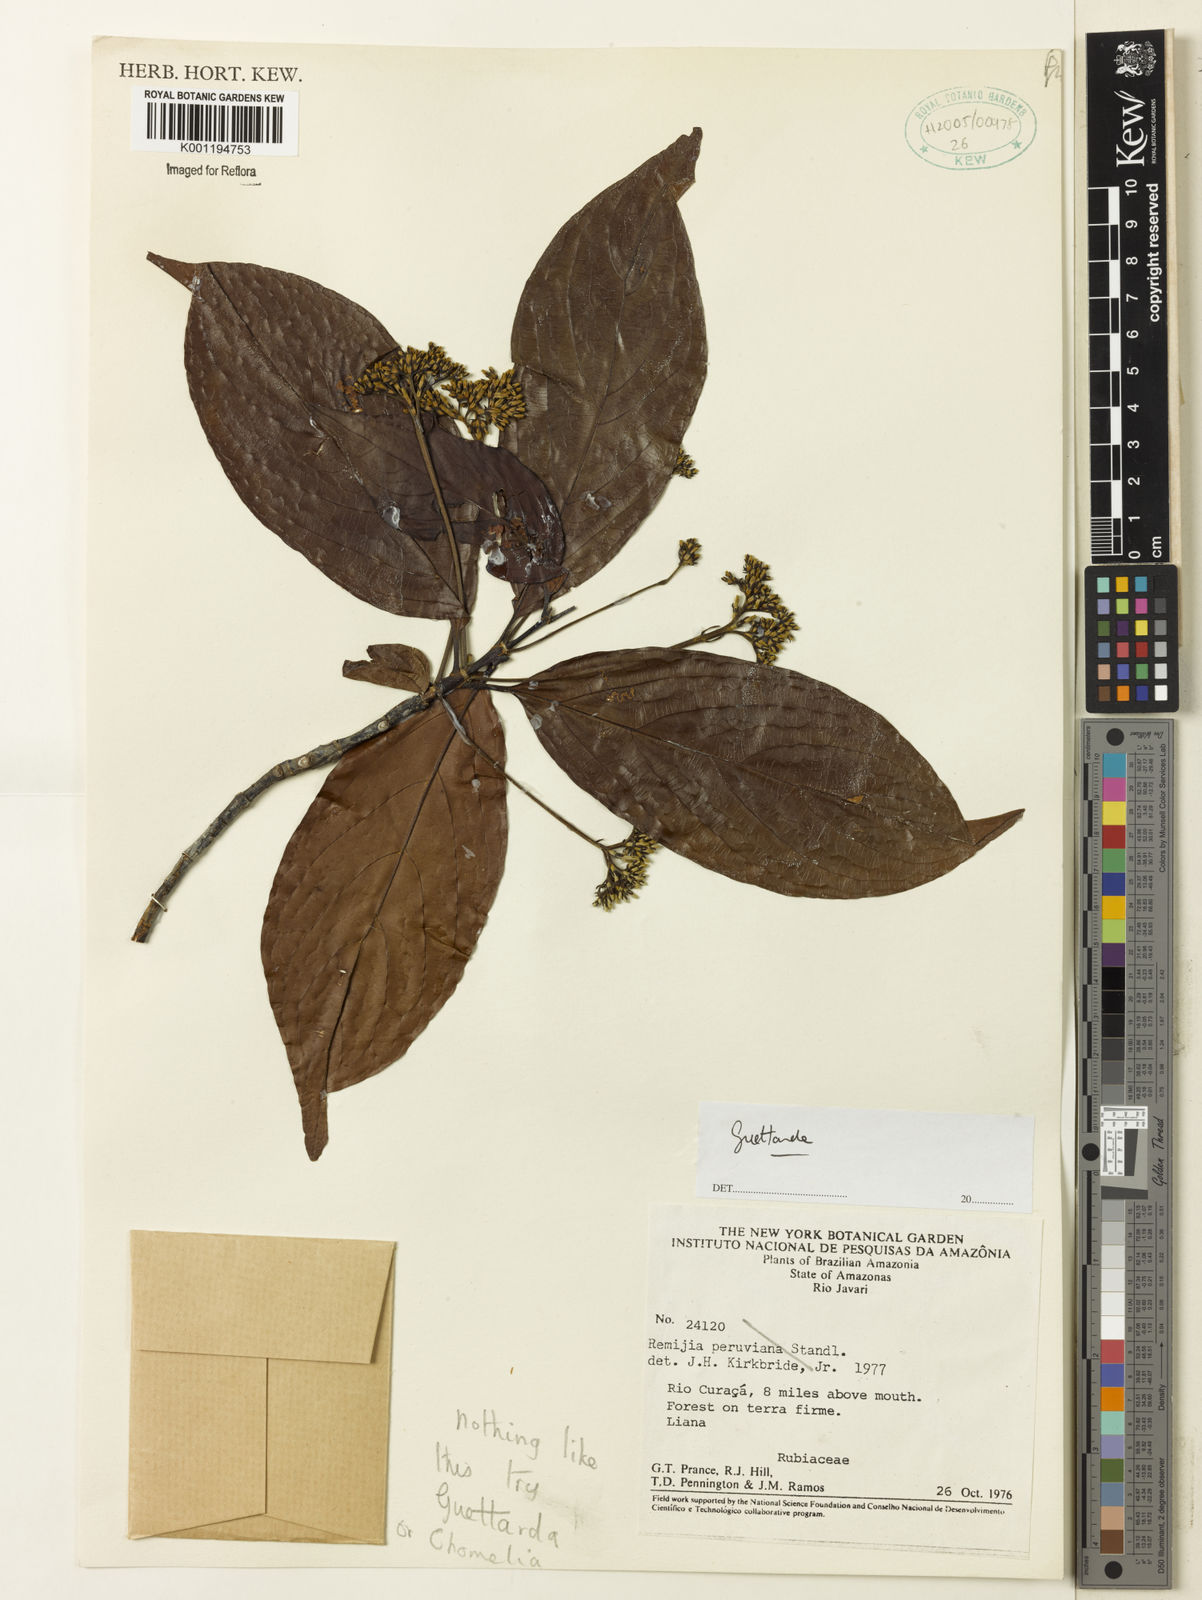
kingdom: Plantae
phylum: Tracheophyta
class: Magnoliopsida
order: Gentianales
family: Rubiaceae
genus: Guettarda
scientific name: Guettarda
